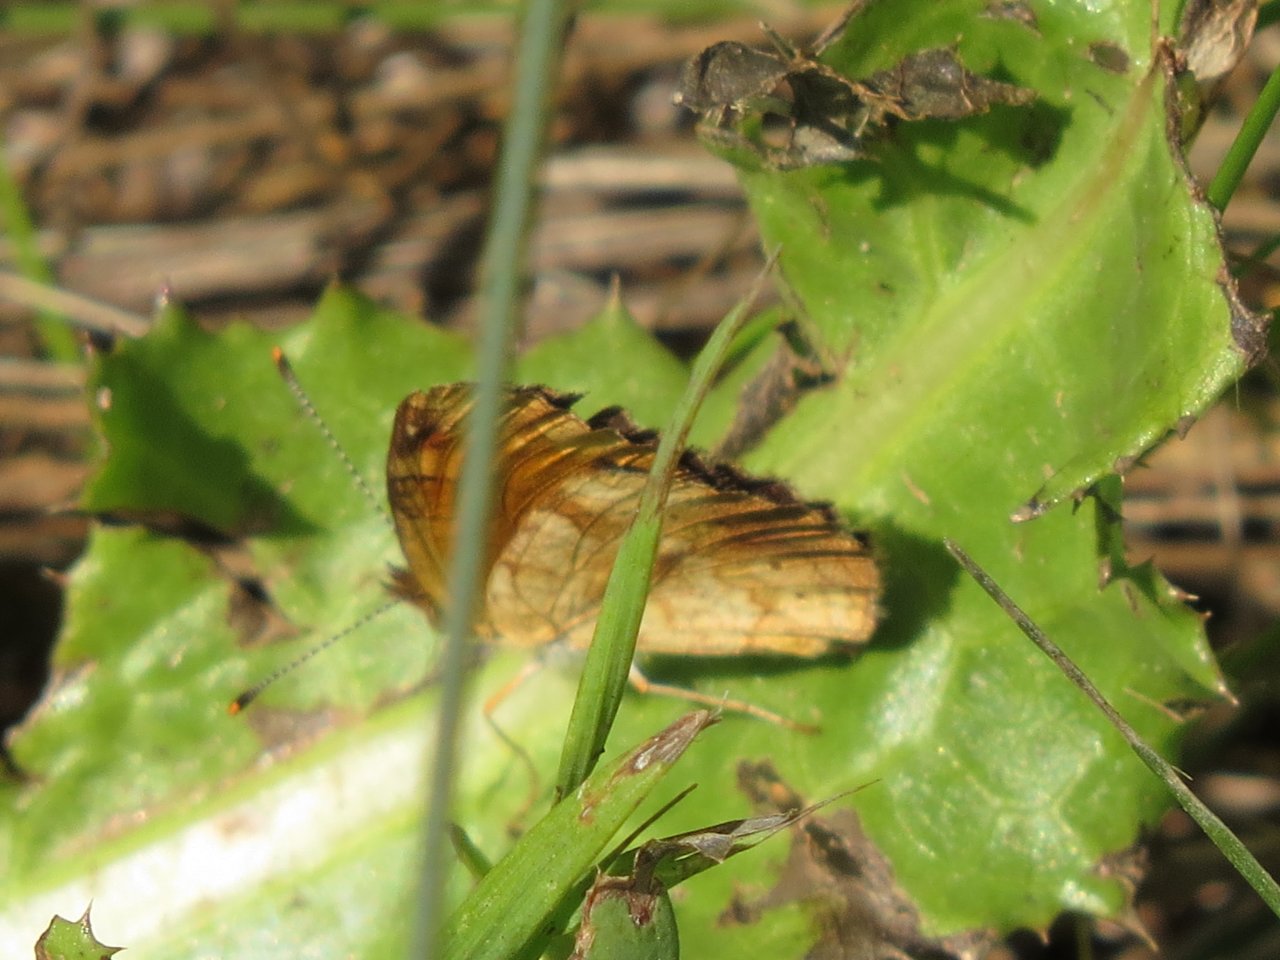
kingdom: Animalia
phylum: Arthropoda
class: Insecta
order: Lepidoptera
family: Nymphalidae
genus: Phyciodes
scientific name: Phyciodes tharos
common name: Northern Crescent
